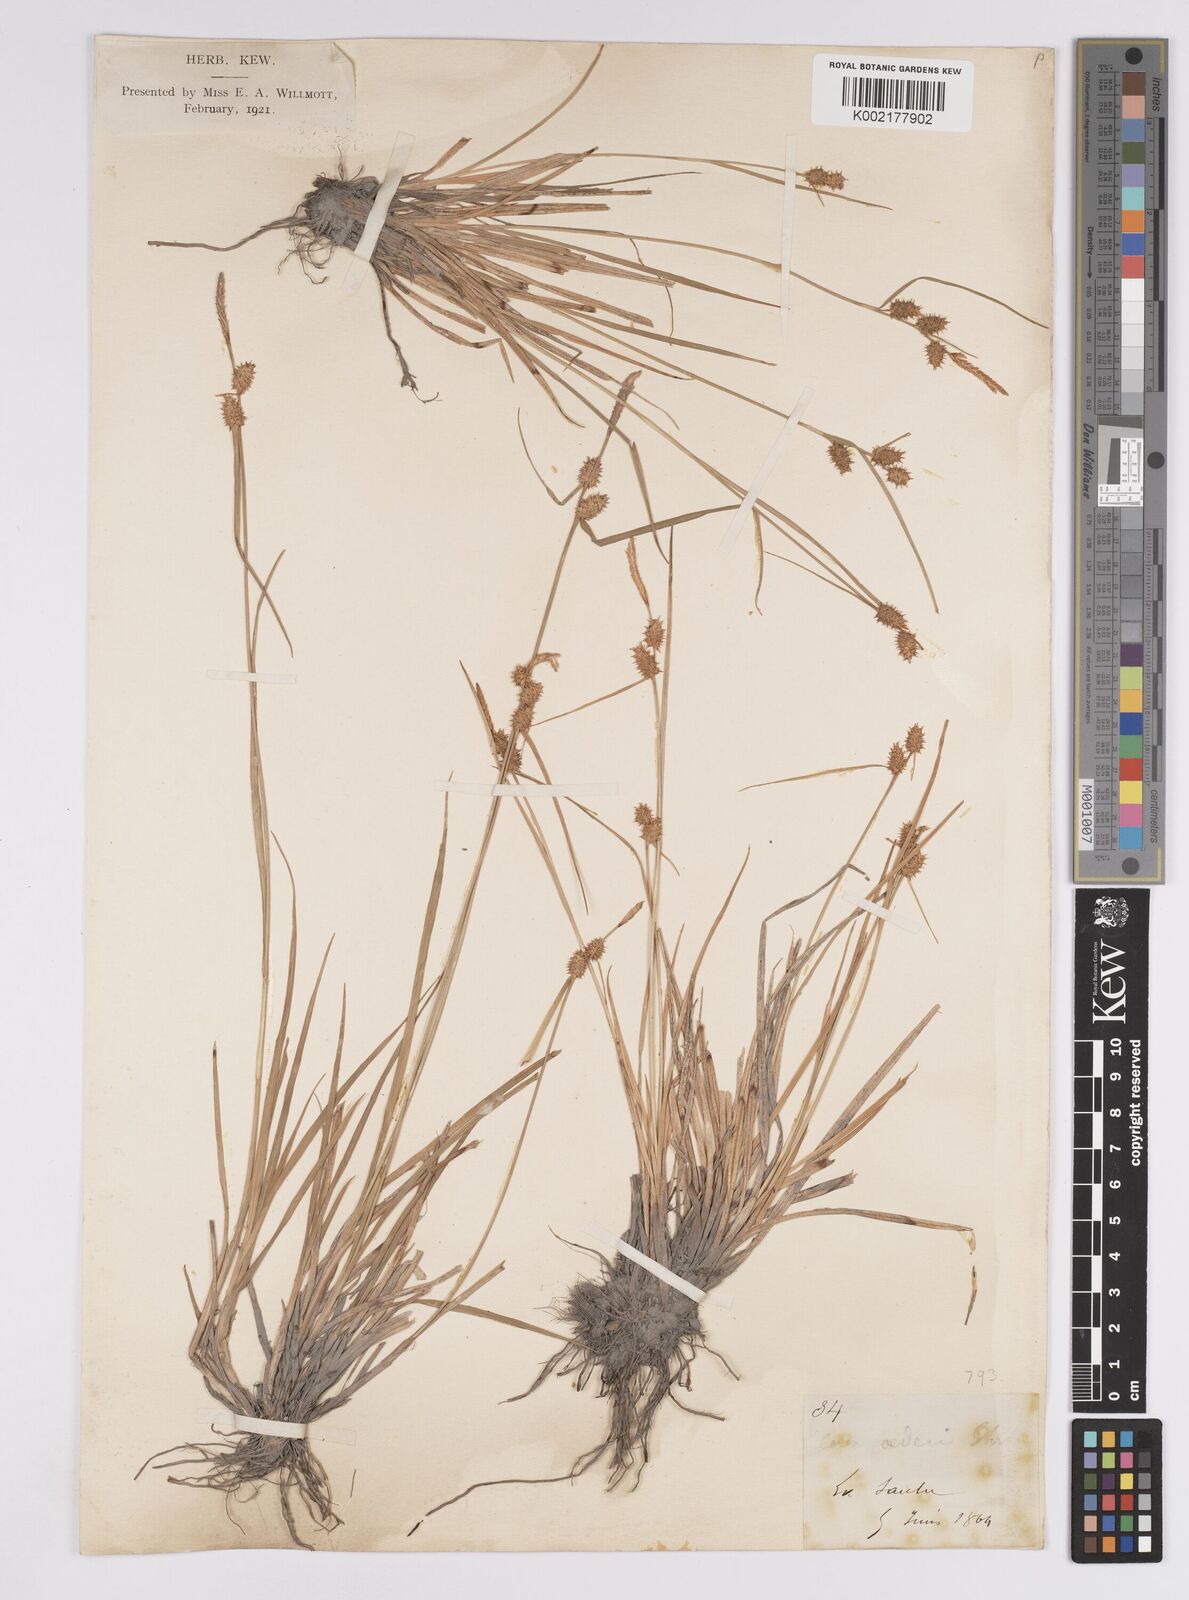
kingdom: Plantae
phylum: Tracheophyta
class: Liliopsida
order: Poales
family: Cyperaceae
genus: Carex
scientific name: Carex flava
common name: Large yellow-sedge
